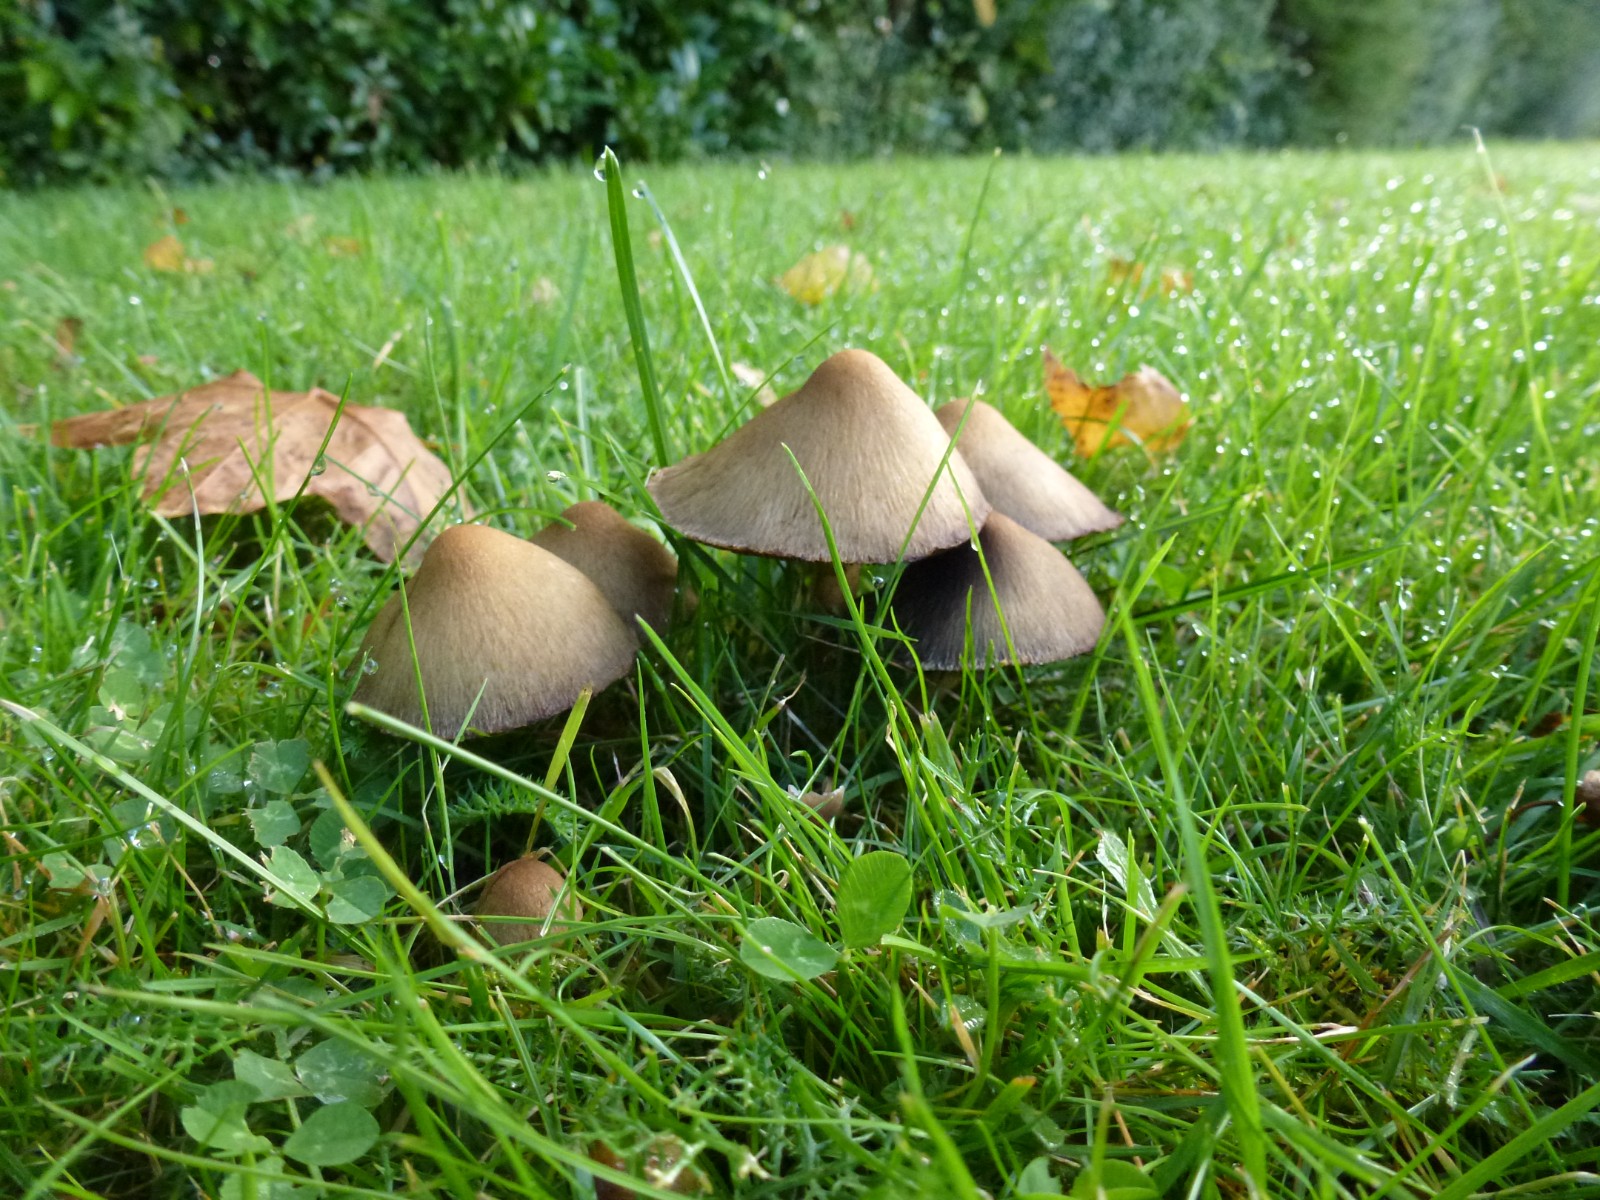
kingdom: Fungi
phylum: Basidiomycota
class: Agaricomycetes
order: Agaricales
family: Psathyrellaceae
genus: Lacrymaria
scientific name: Lacrymaria lacrymabunda
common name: grædende mørkhat
